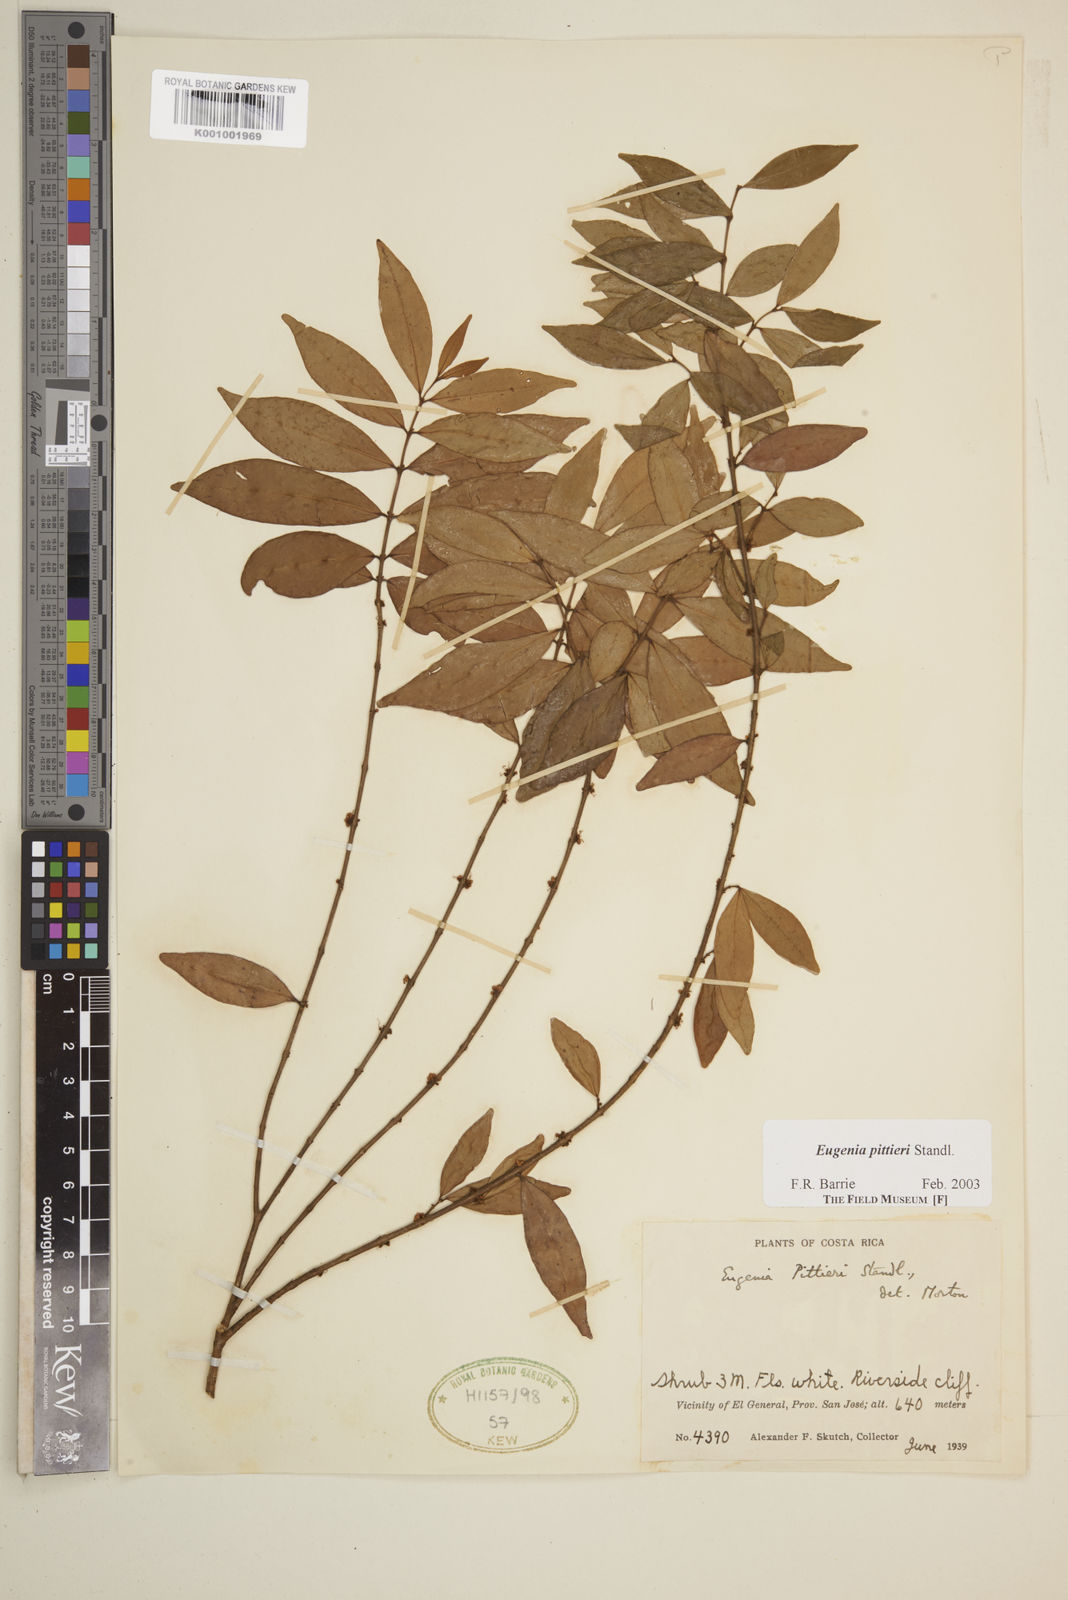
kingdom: Plantae
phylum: Tracheophyta
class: Magnoliopsida
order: Myrtales
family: Myrtaceae
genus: Eugenia
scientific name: Eugenia pittieri
